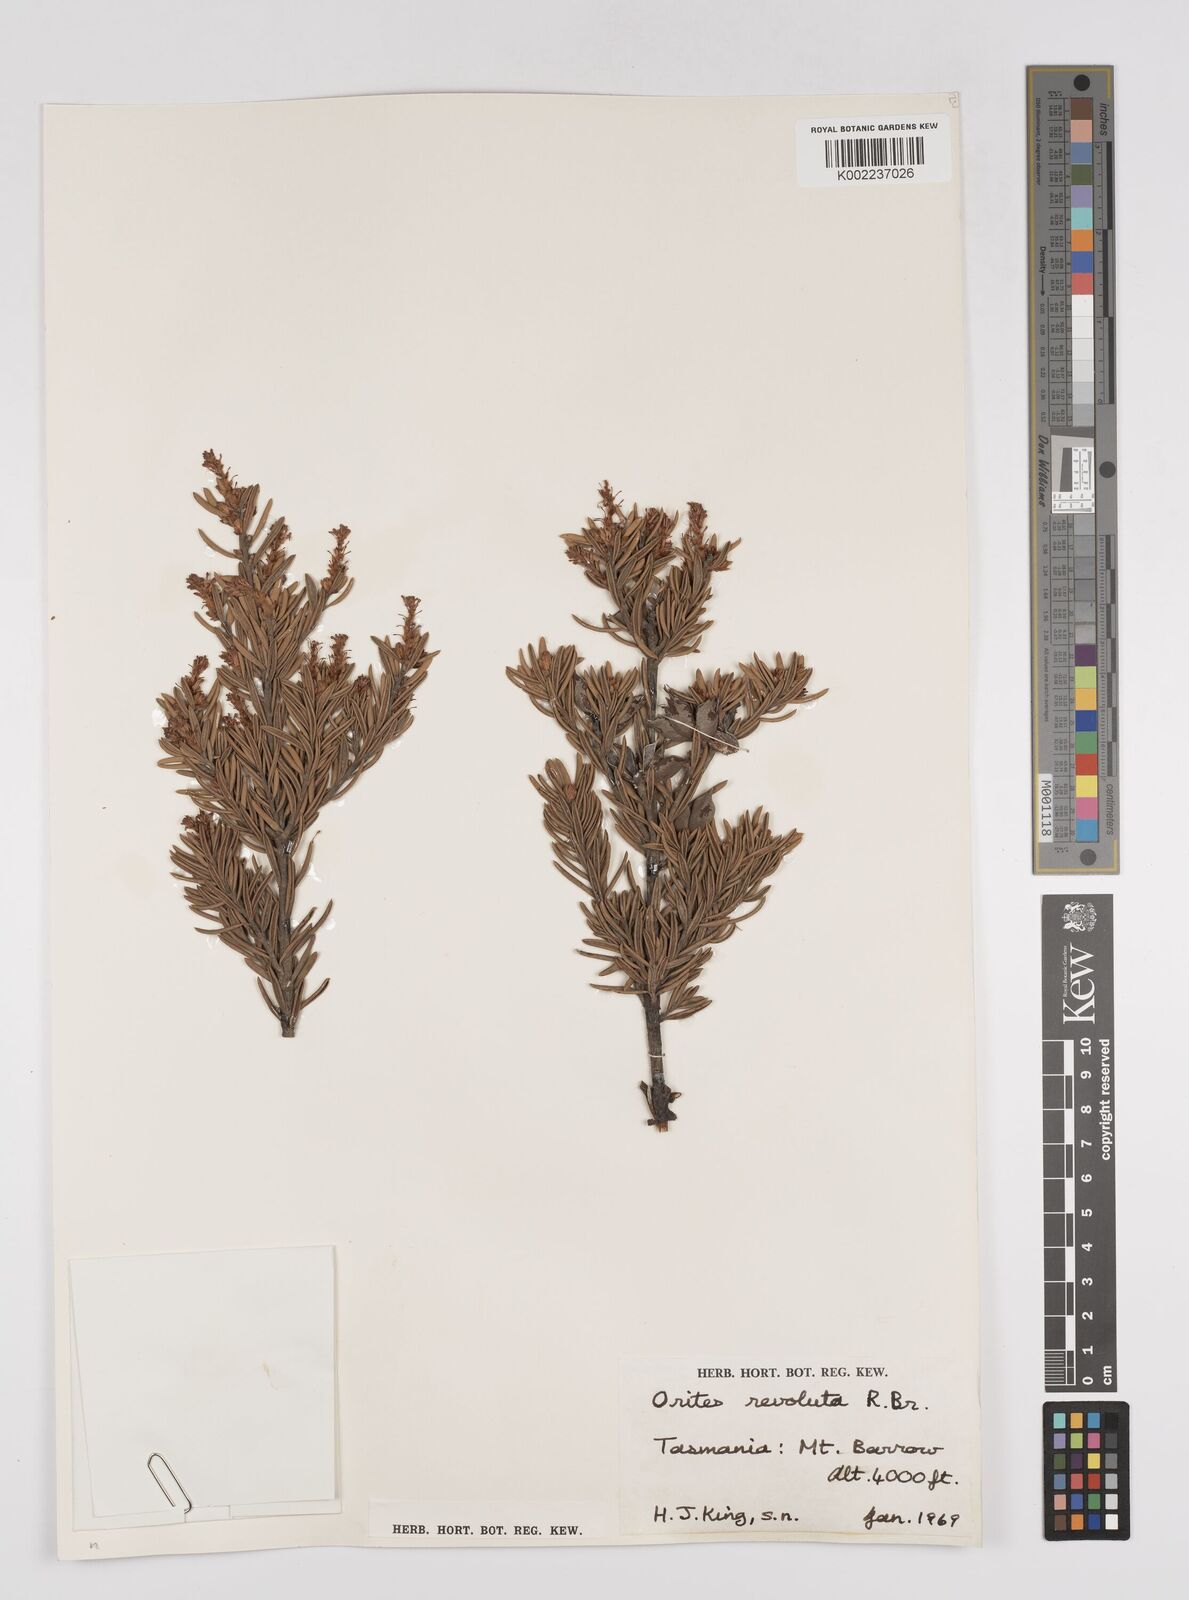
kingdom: Plantae
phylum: Tracheophyta
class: Magnoliopsida
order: Proteales
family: Proteaceae
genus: Orites
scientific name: Orites revolutus
